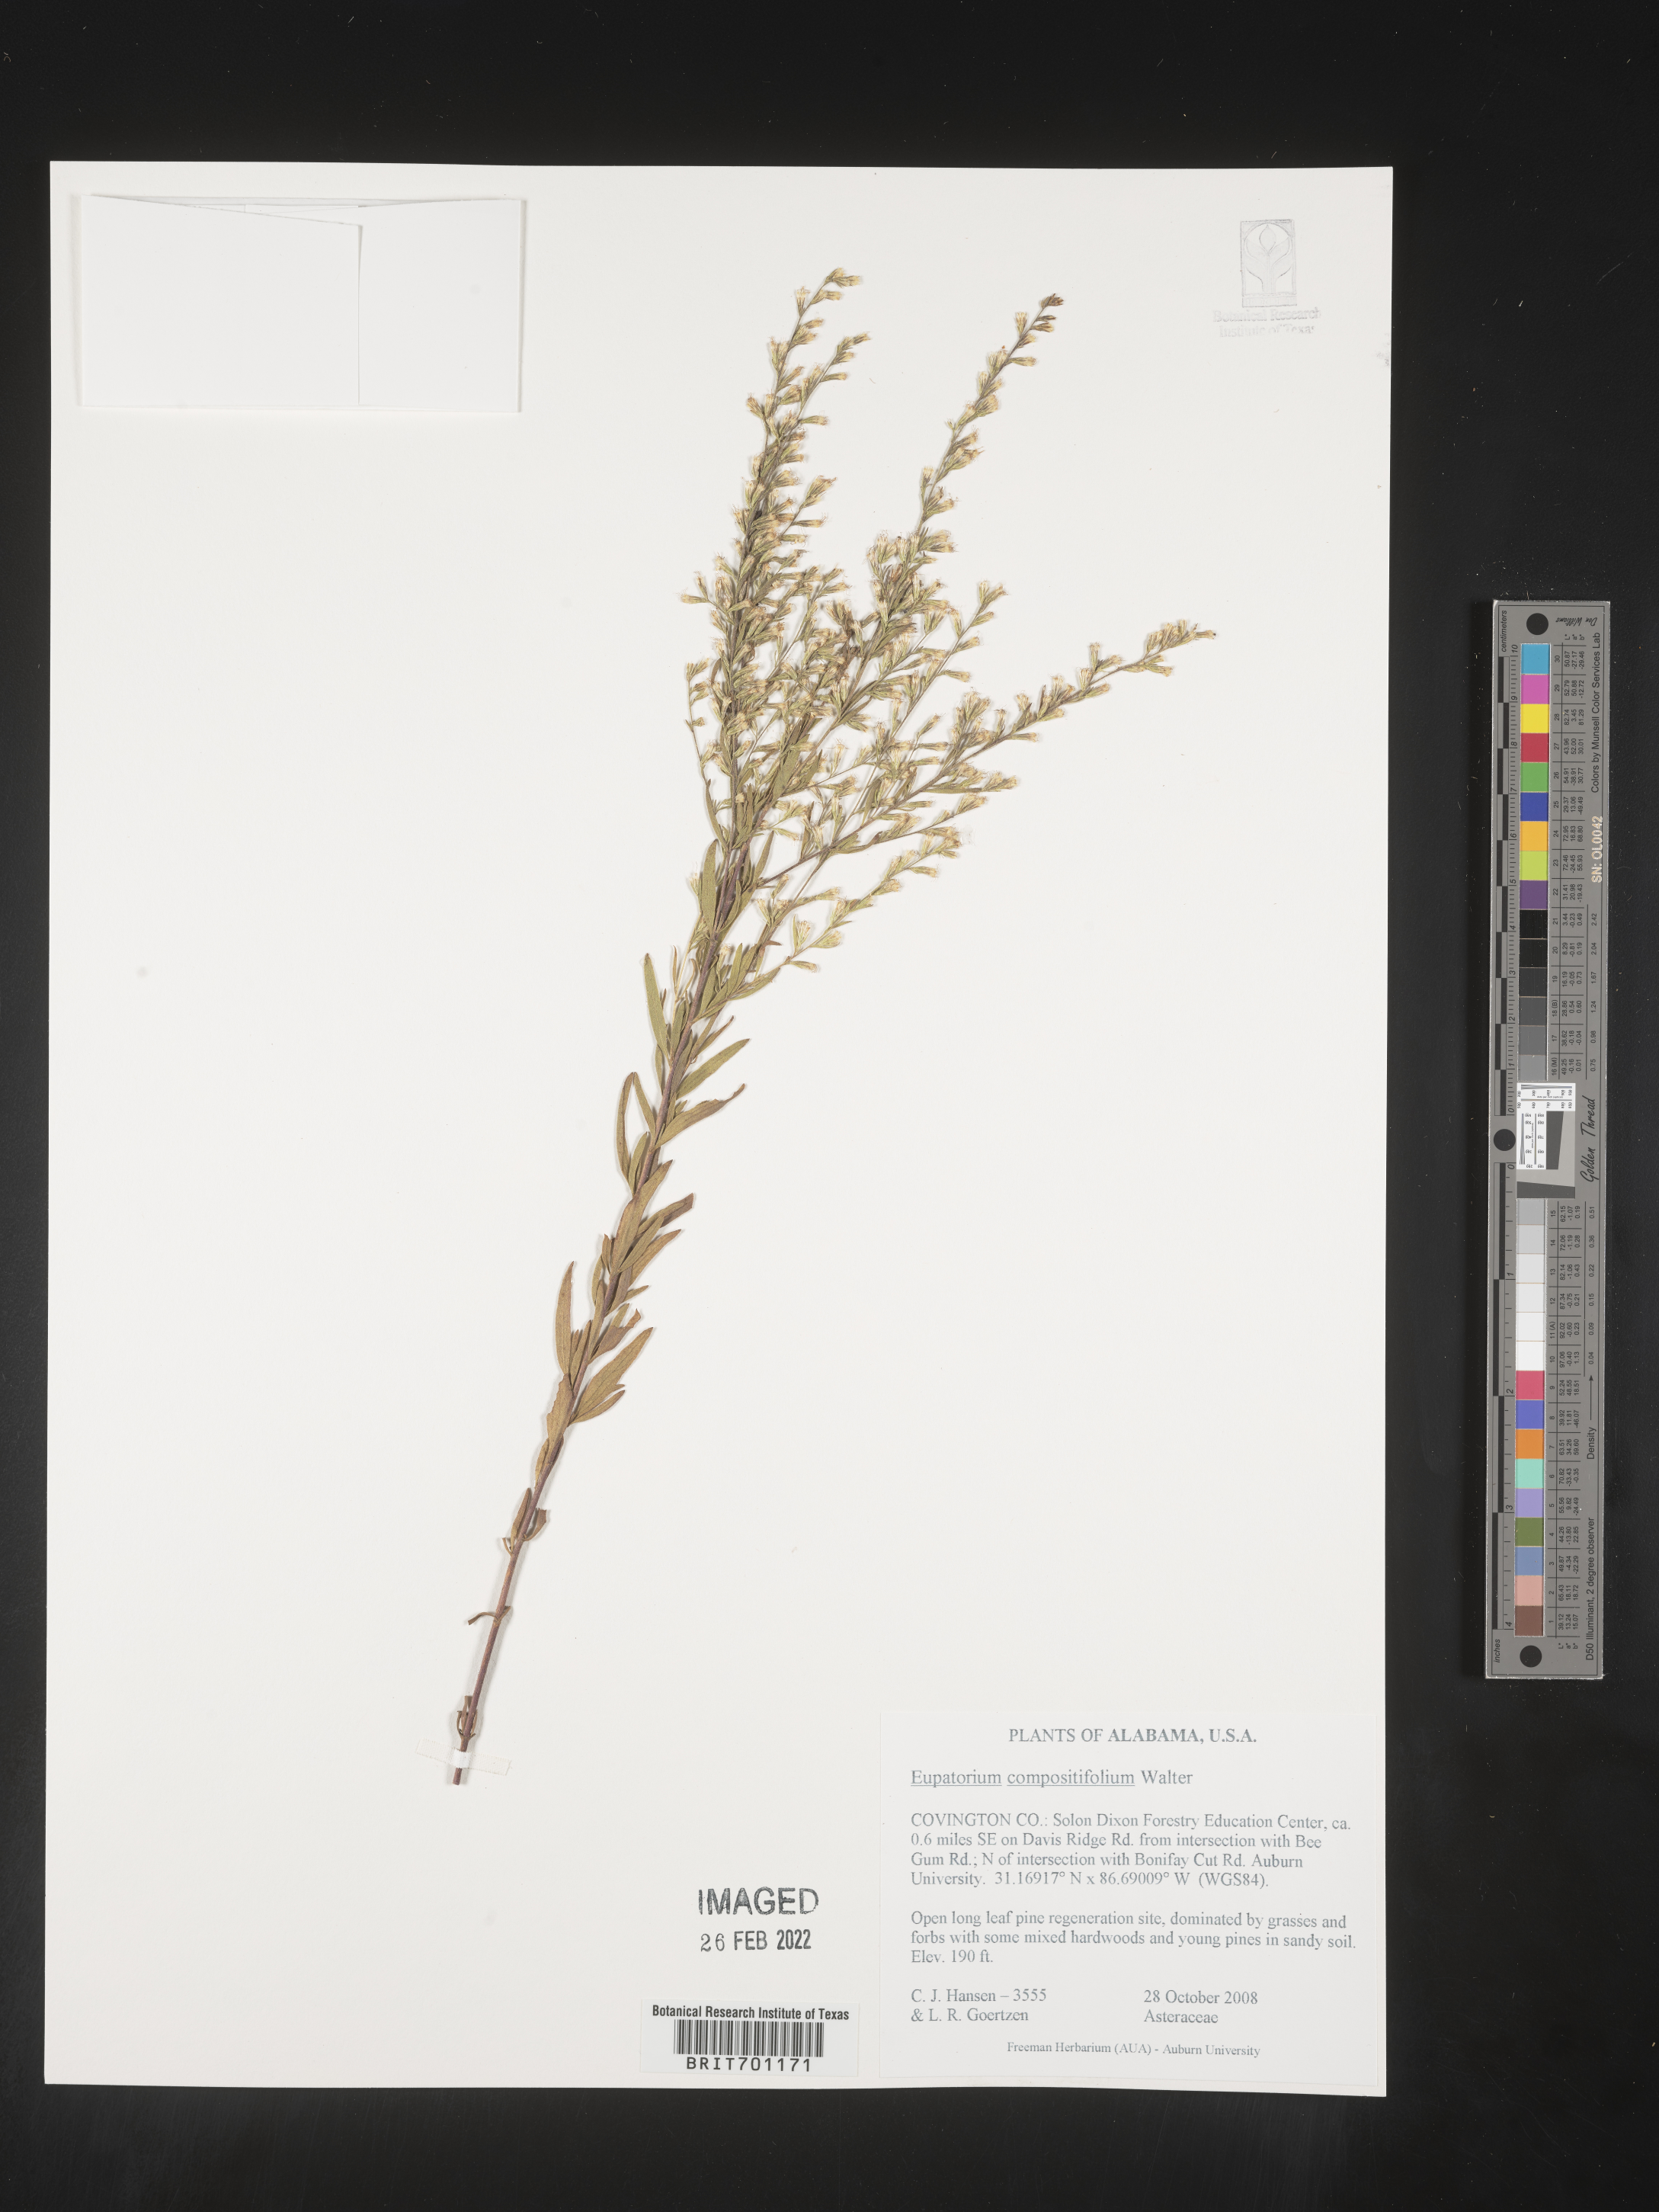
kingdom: Plantae
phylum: Tracheophyta
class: Magnoliopsida
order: Asterales
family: Asteraceae
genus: Eupatorium
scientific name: Eupatorium compositifolium
